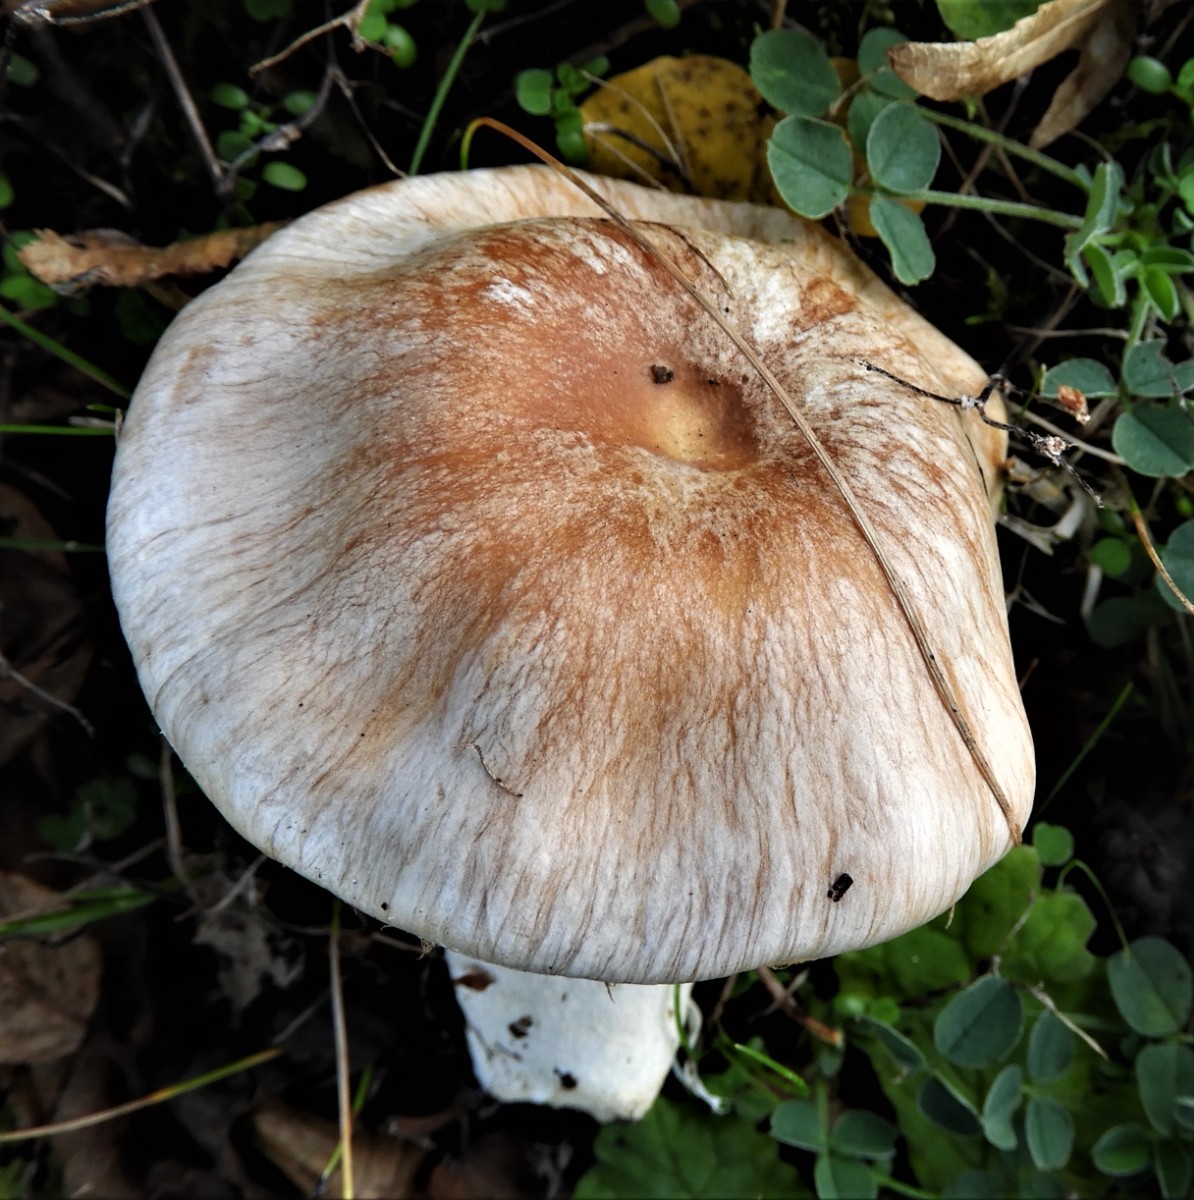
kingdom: Fungi
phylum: Basidiomycota
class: Agaricomycetes
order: Agaricales
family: Cortinariaceae
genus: Cortinarius
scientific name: Cortinarius
